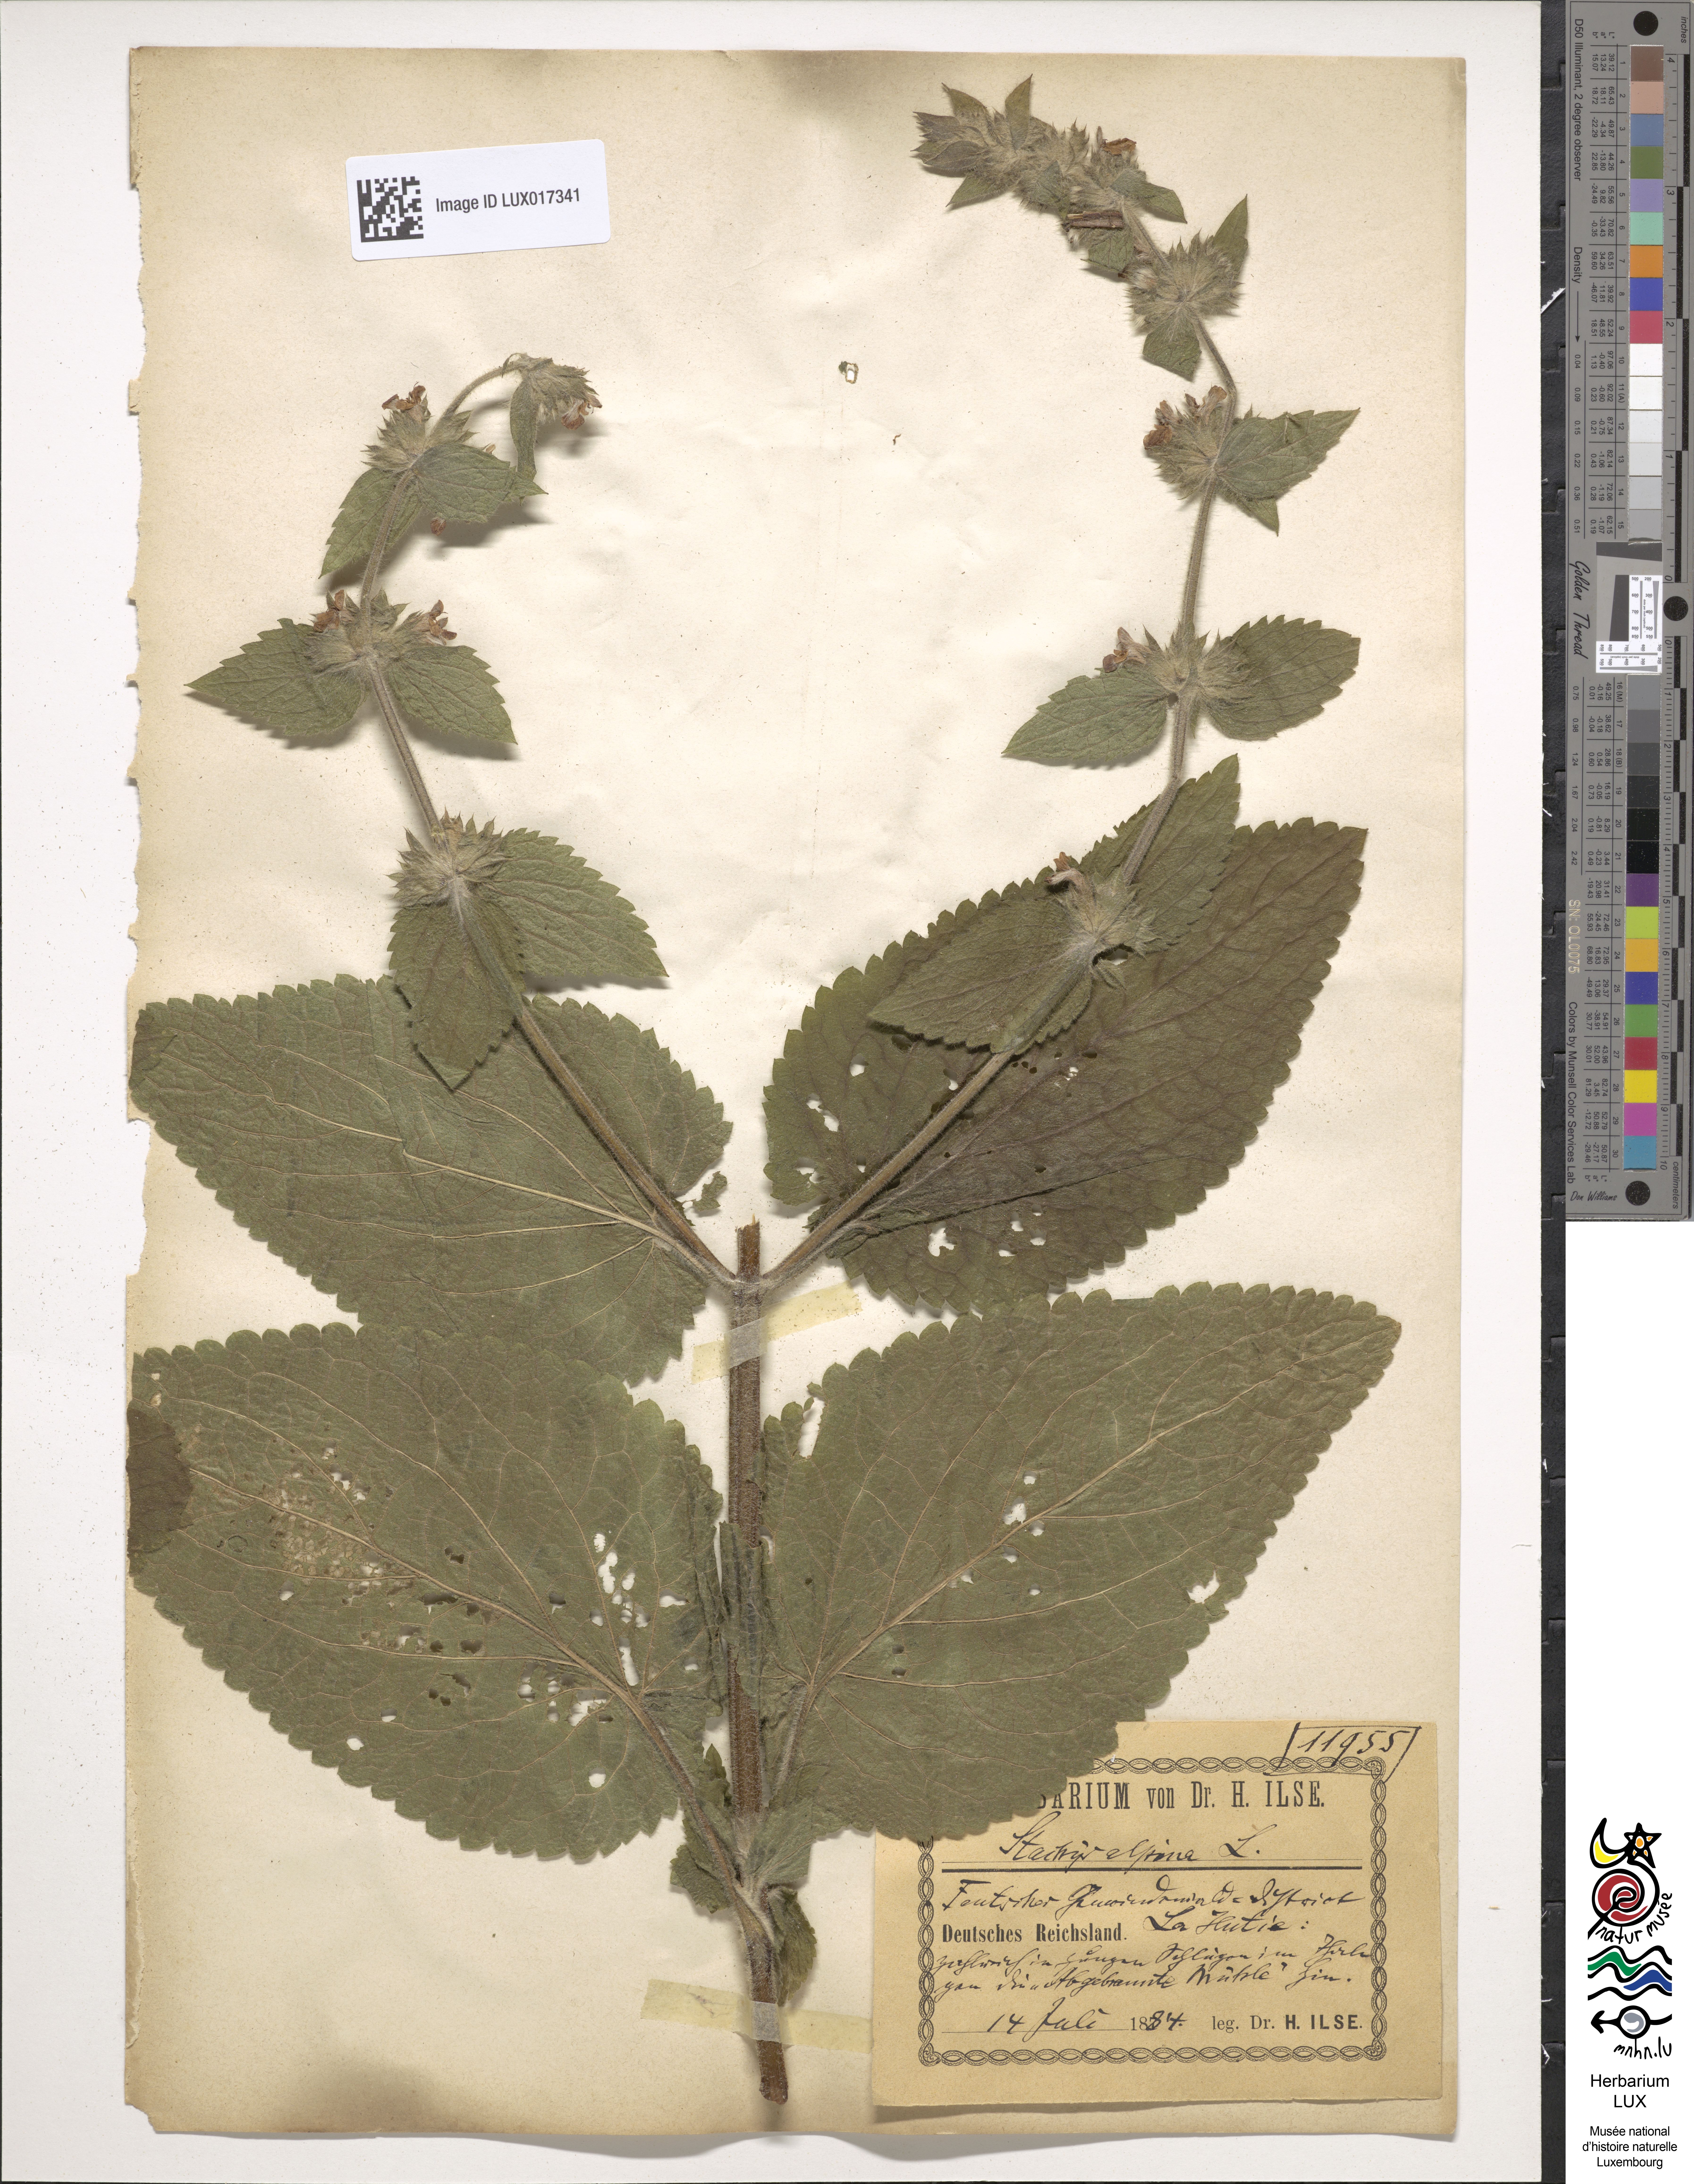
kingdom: Plantae
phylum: Tracheophyta
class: Magnoliopsida
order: Lamiales
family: Lamiaceae
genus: Stachys
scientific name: Stachys alpina
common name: Limestone woundwort
